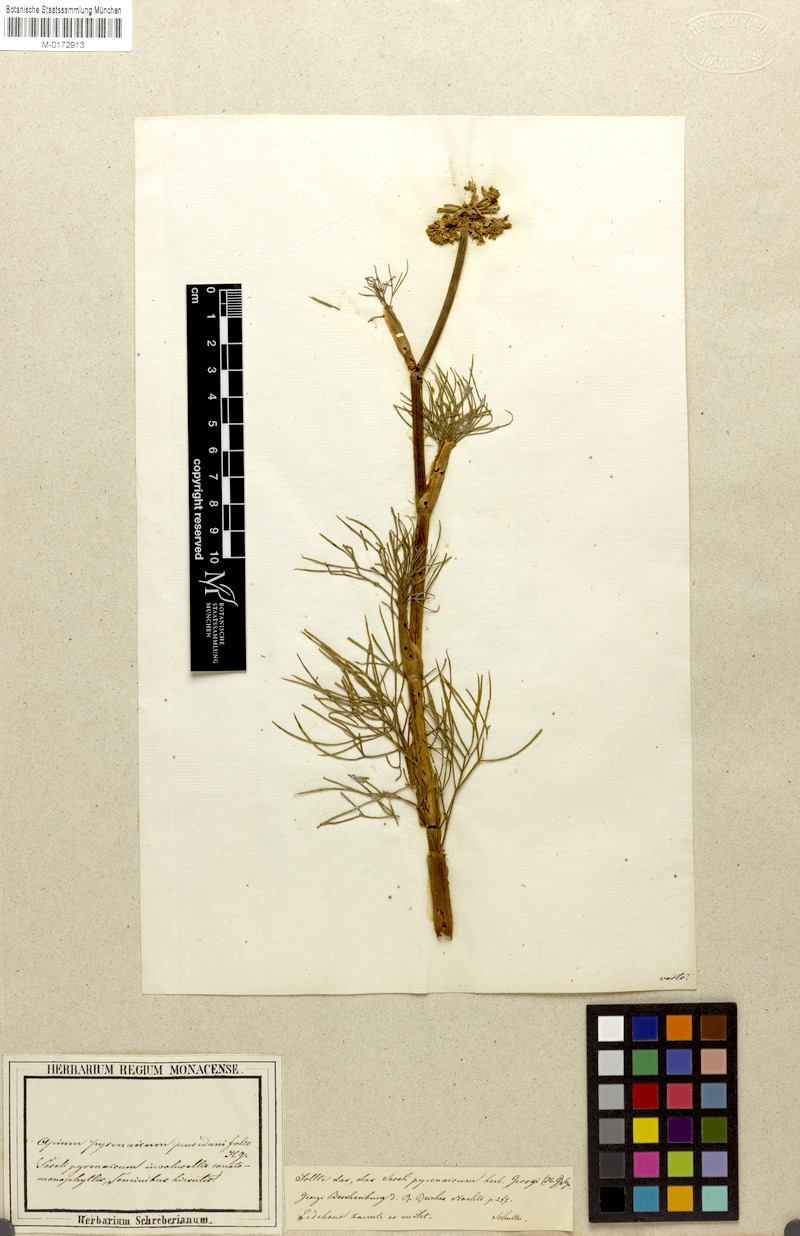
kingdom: Plantae
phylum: Tracheophyta
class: Magnoliopsida
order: Apiales
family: Apiaceae
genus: Seseli
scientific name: Seseli
